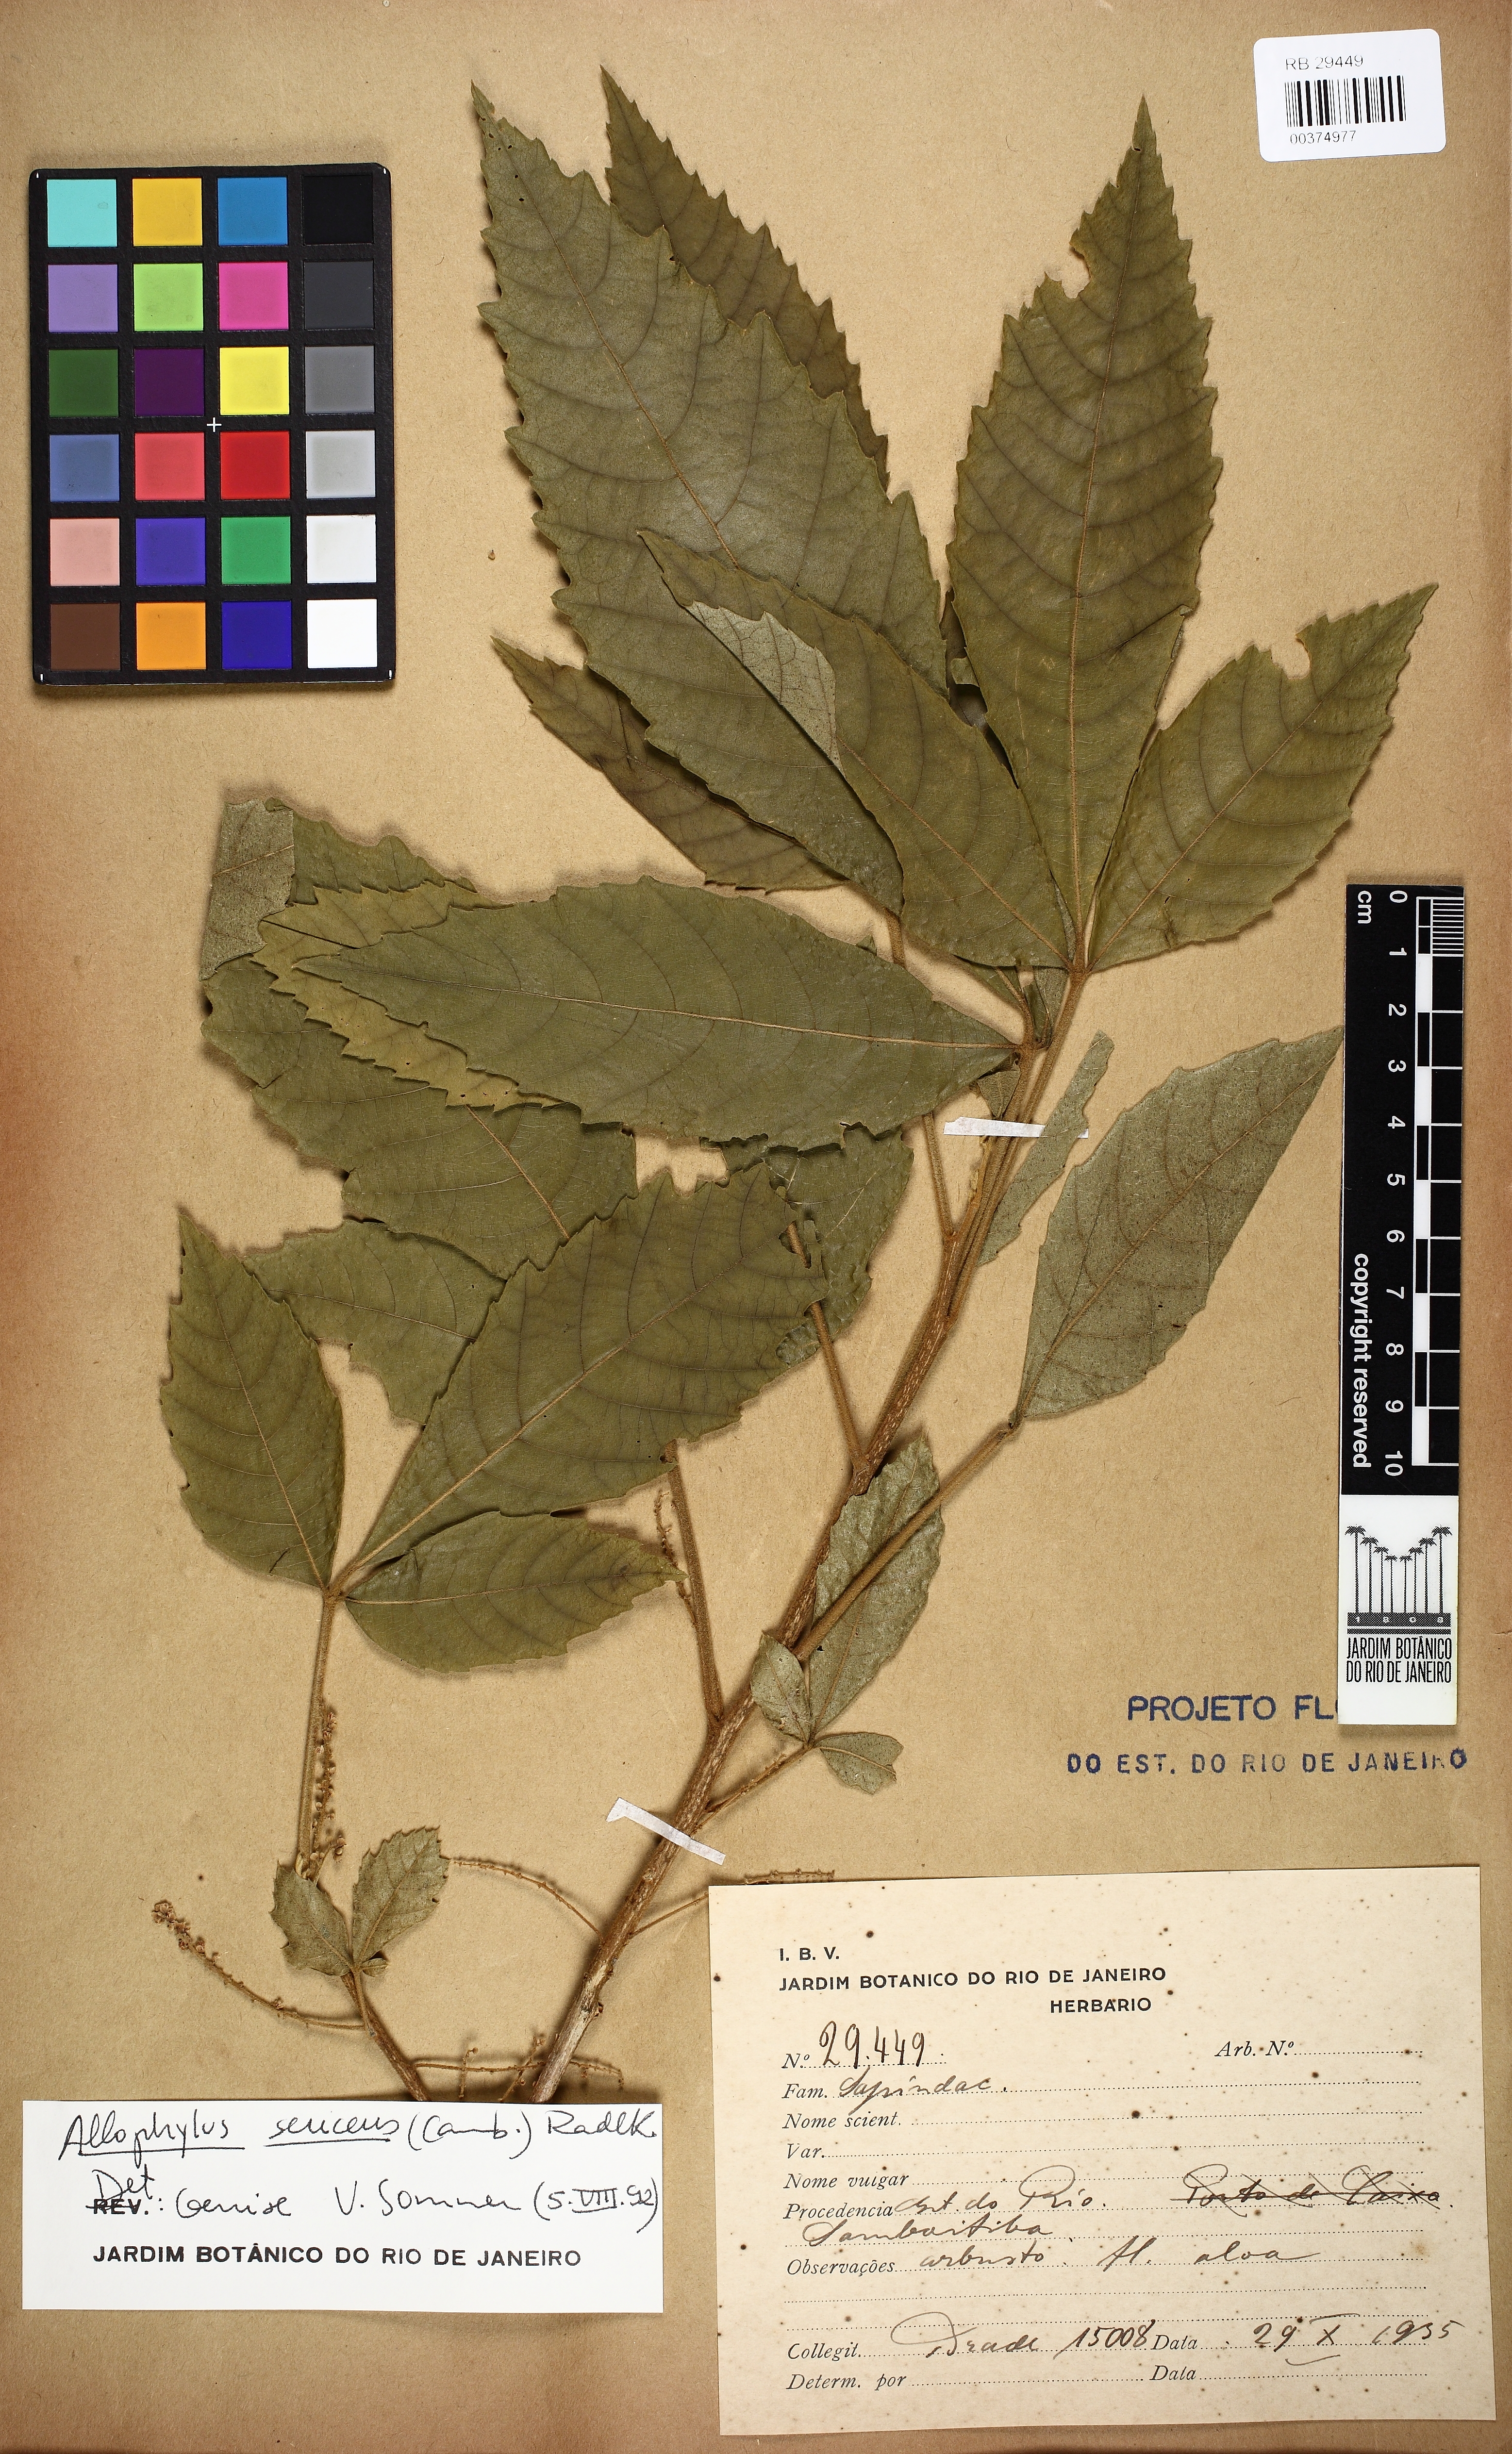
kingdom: Plantae
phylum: Tracheophyta
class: Magnoliopsida
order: Sapindales
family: Sapindaceae
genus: Allophylus
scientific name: Allophylus semidentatus
